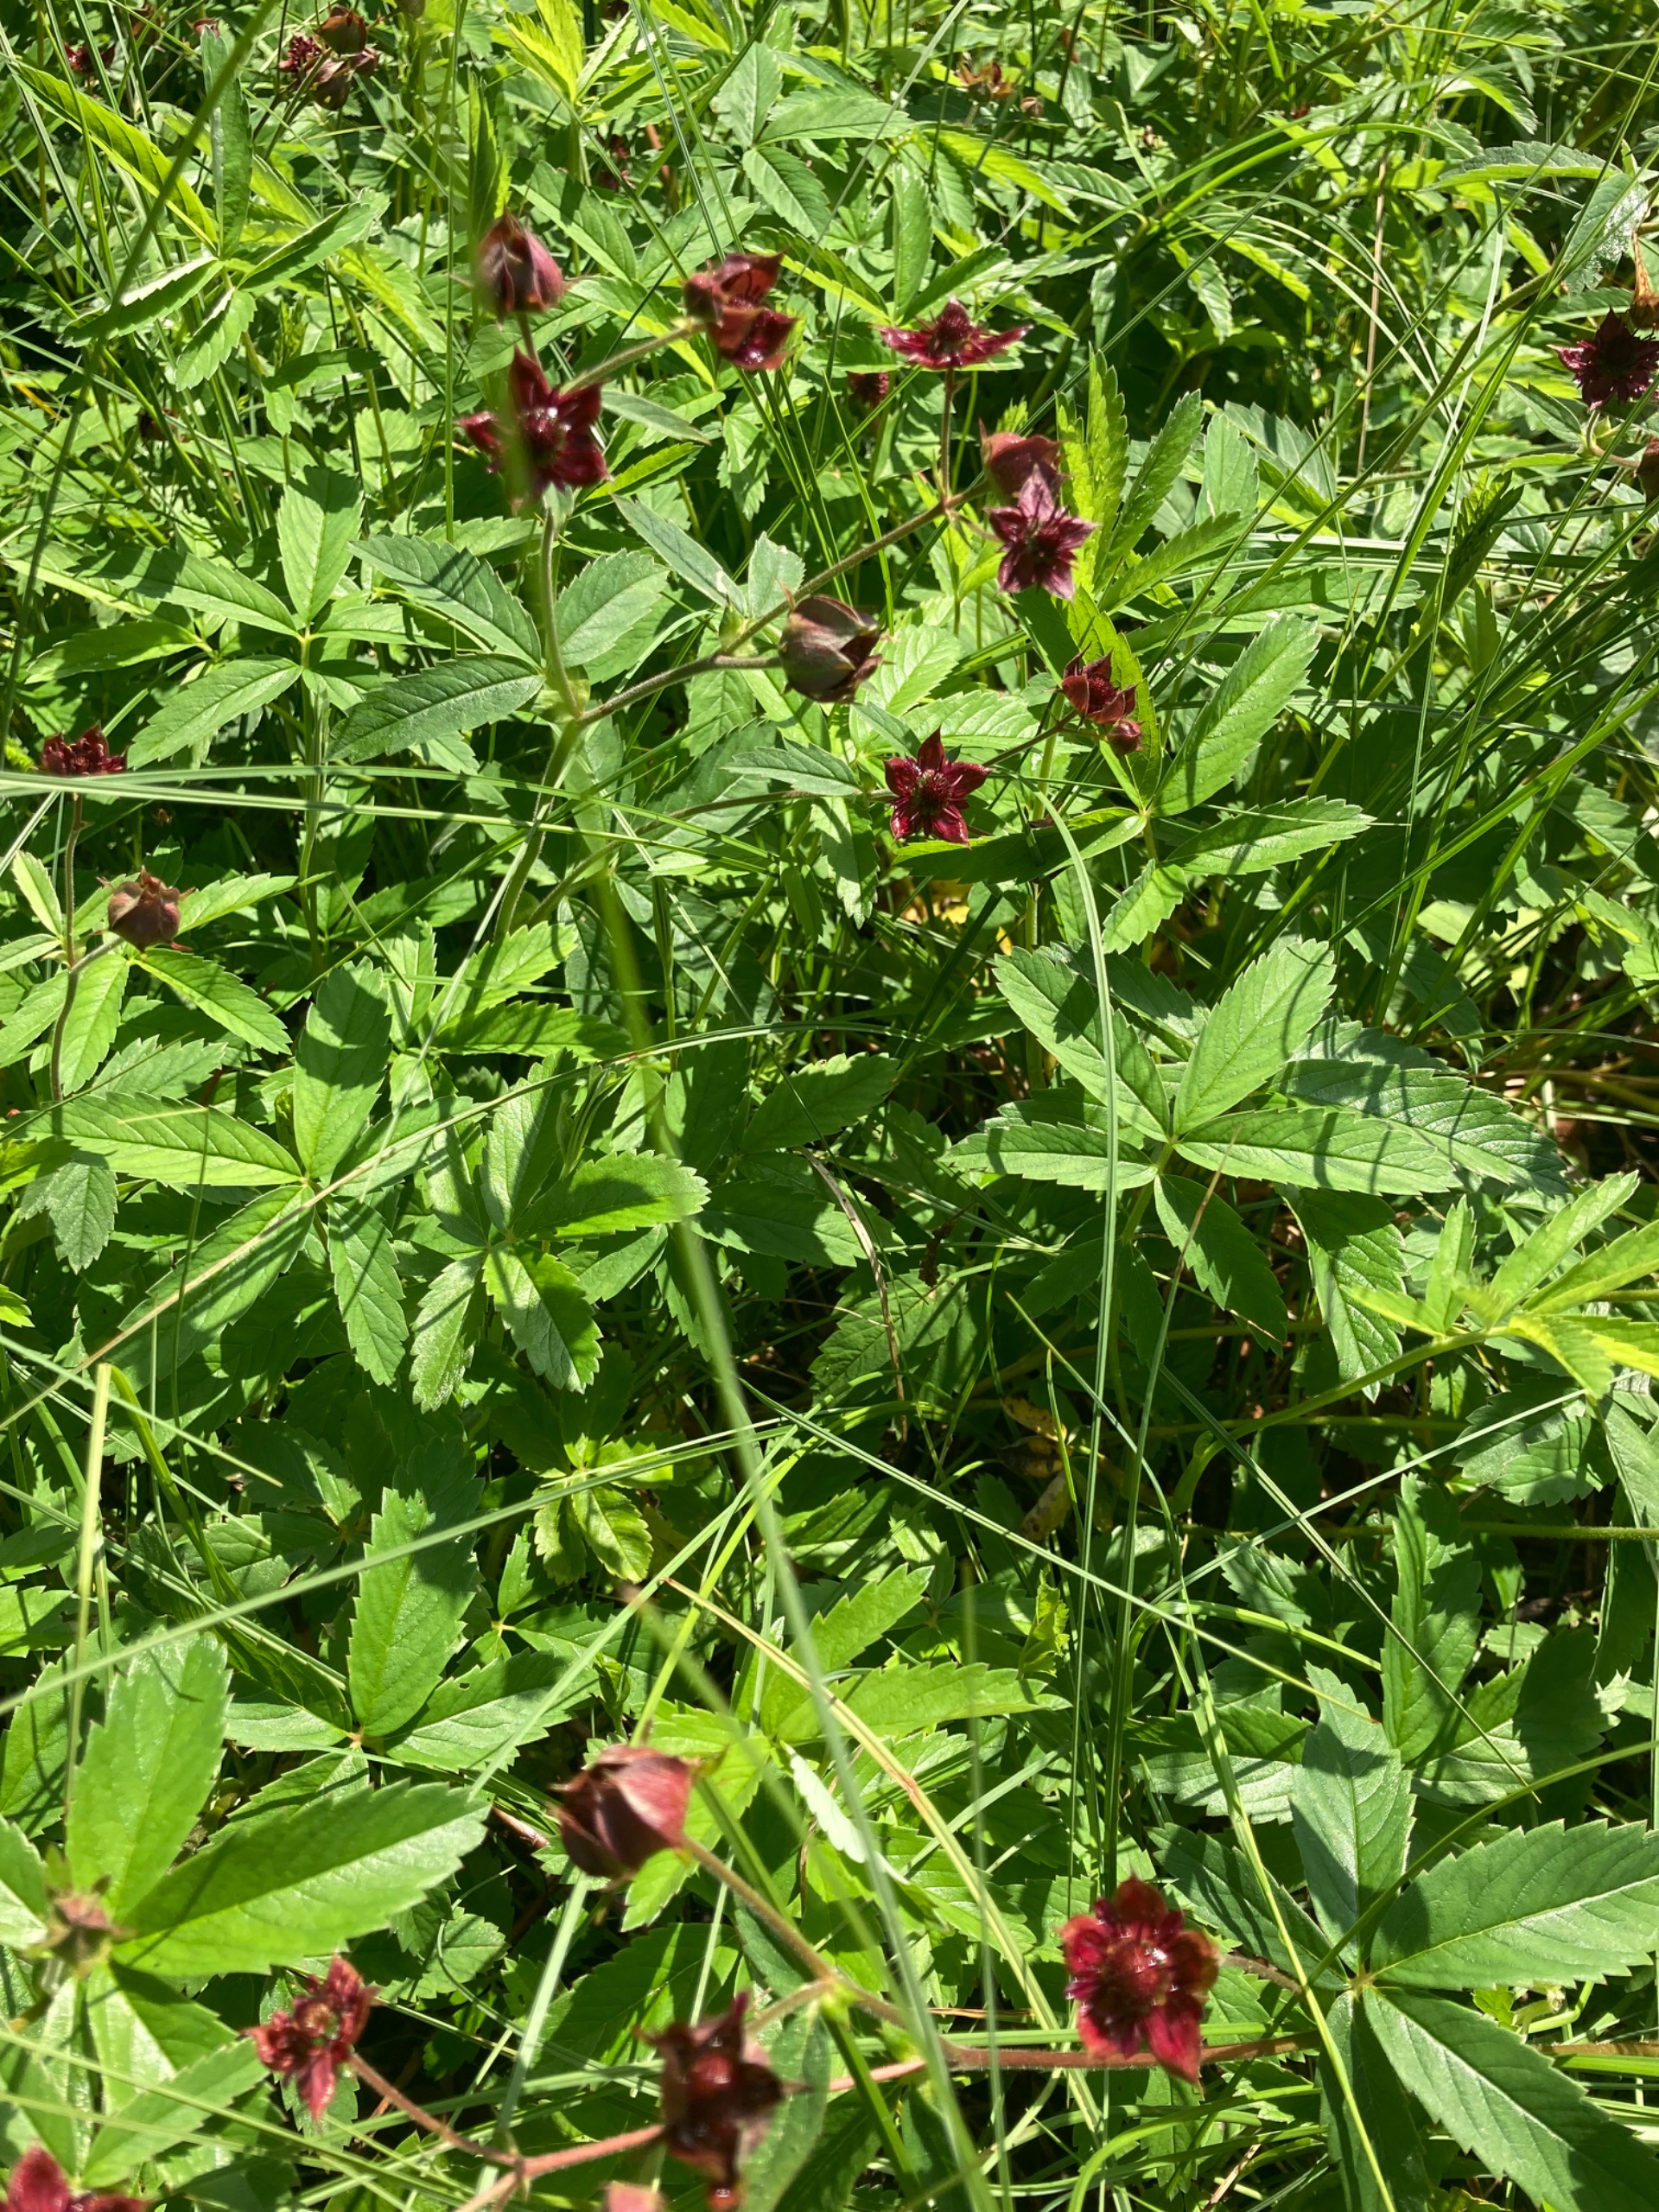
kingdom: Plantae
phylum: Tracheophyta
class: Magnoliopsida
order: Rosales
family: Rosaceae
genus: Comarum
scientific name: Comarum palustre
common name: Kragefod
